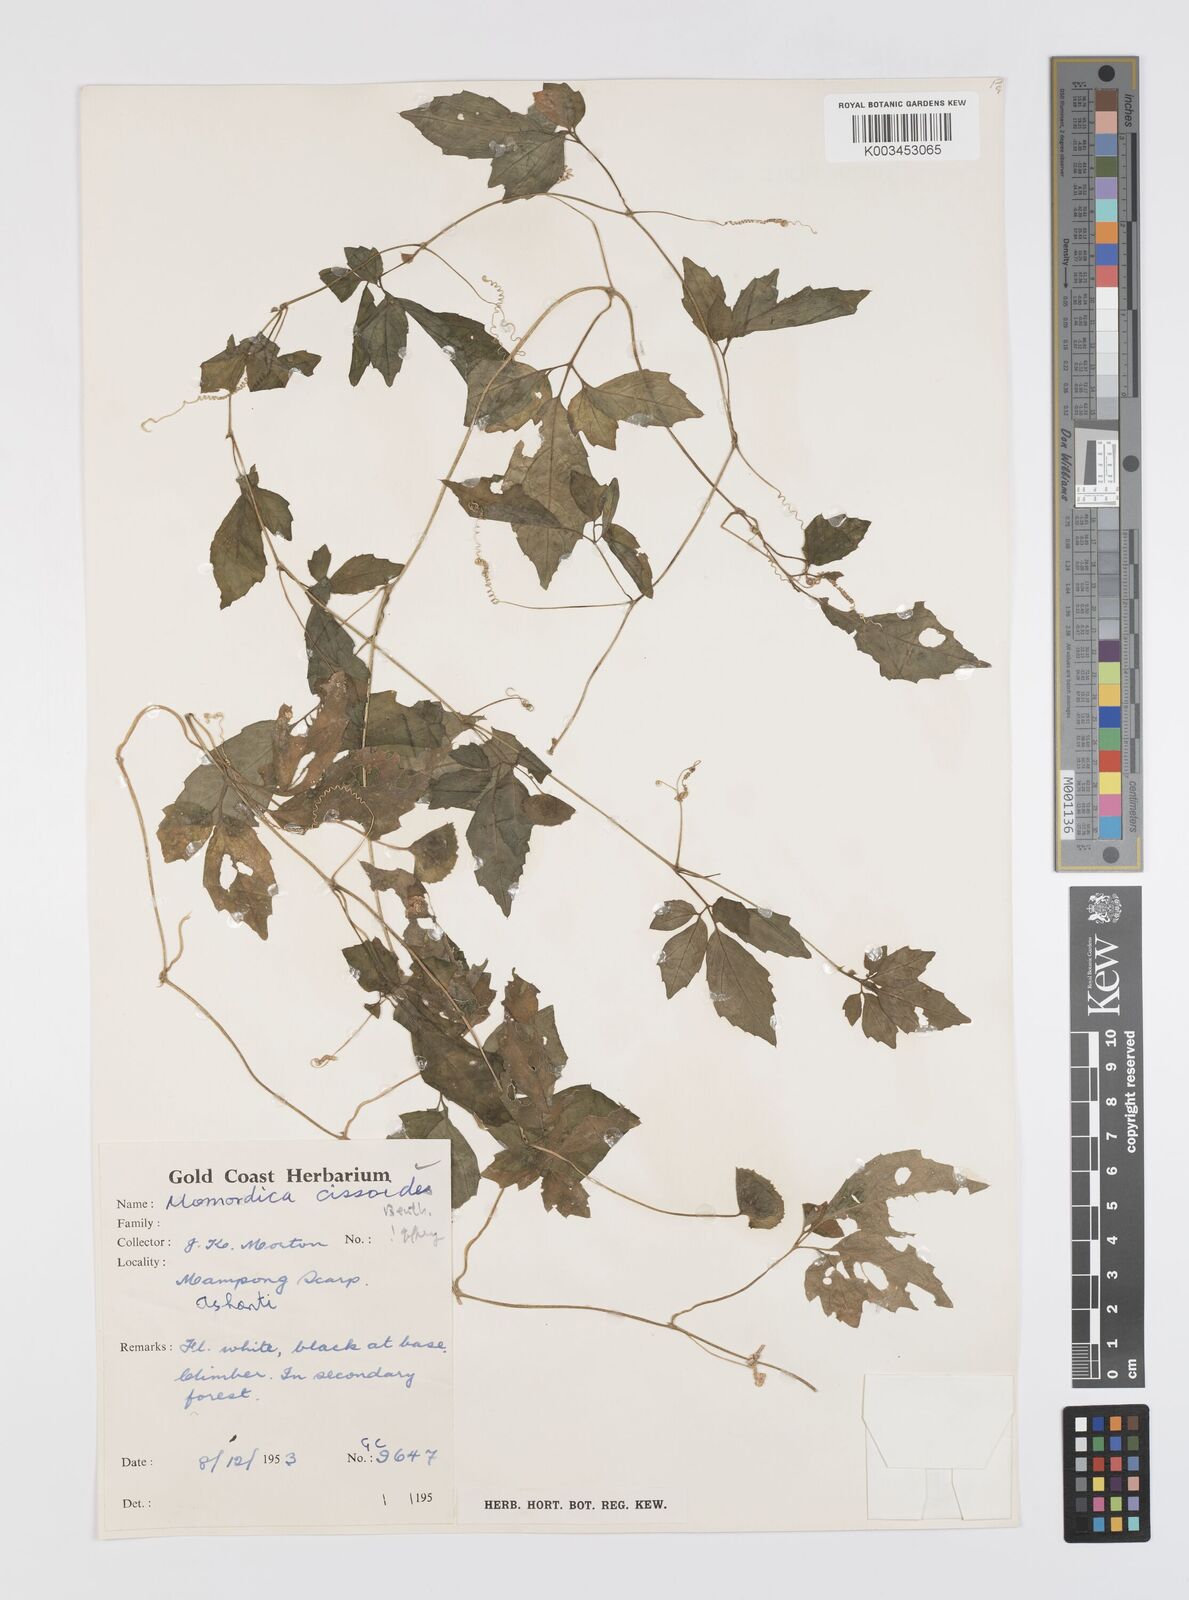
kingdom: Plantae
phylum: Tracheophyta
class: Magnoliopsida
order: Cucurbitales
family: Cucurbitaceae
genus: Momordica
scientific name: Momordica cissoides
